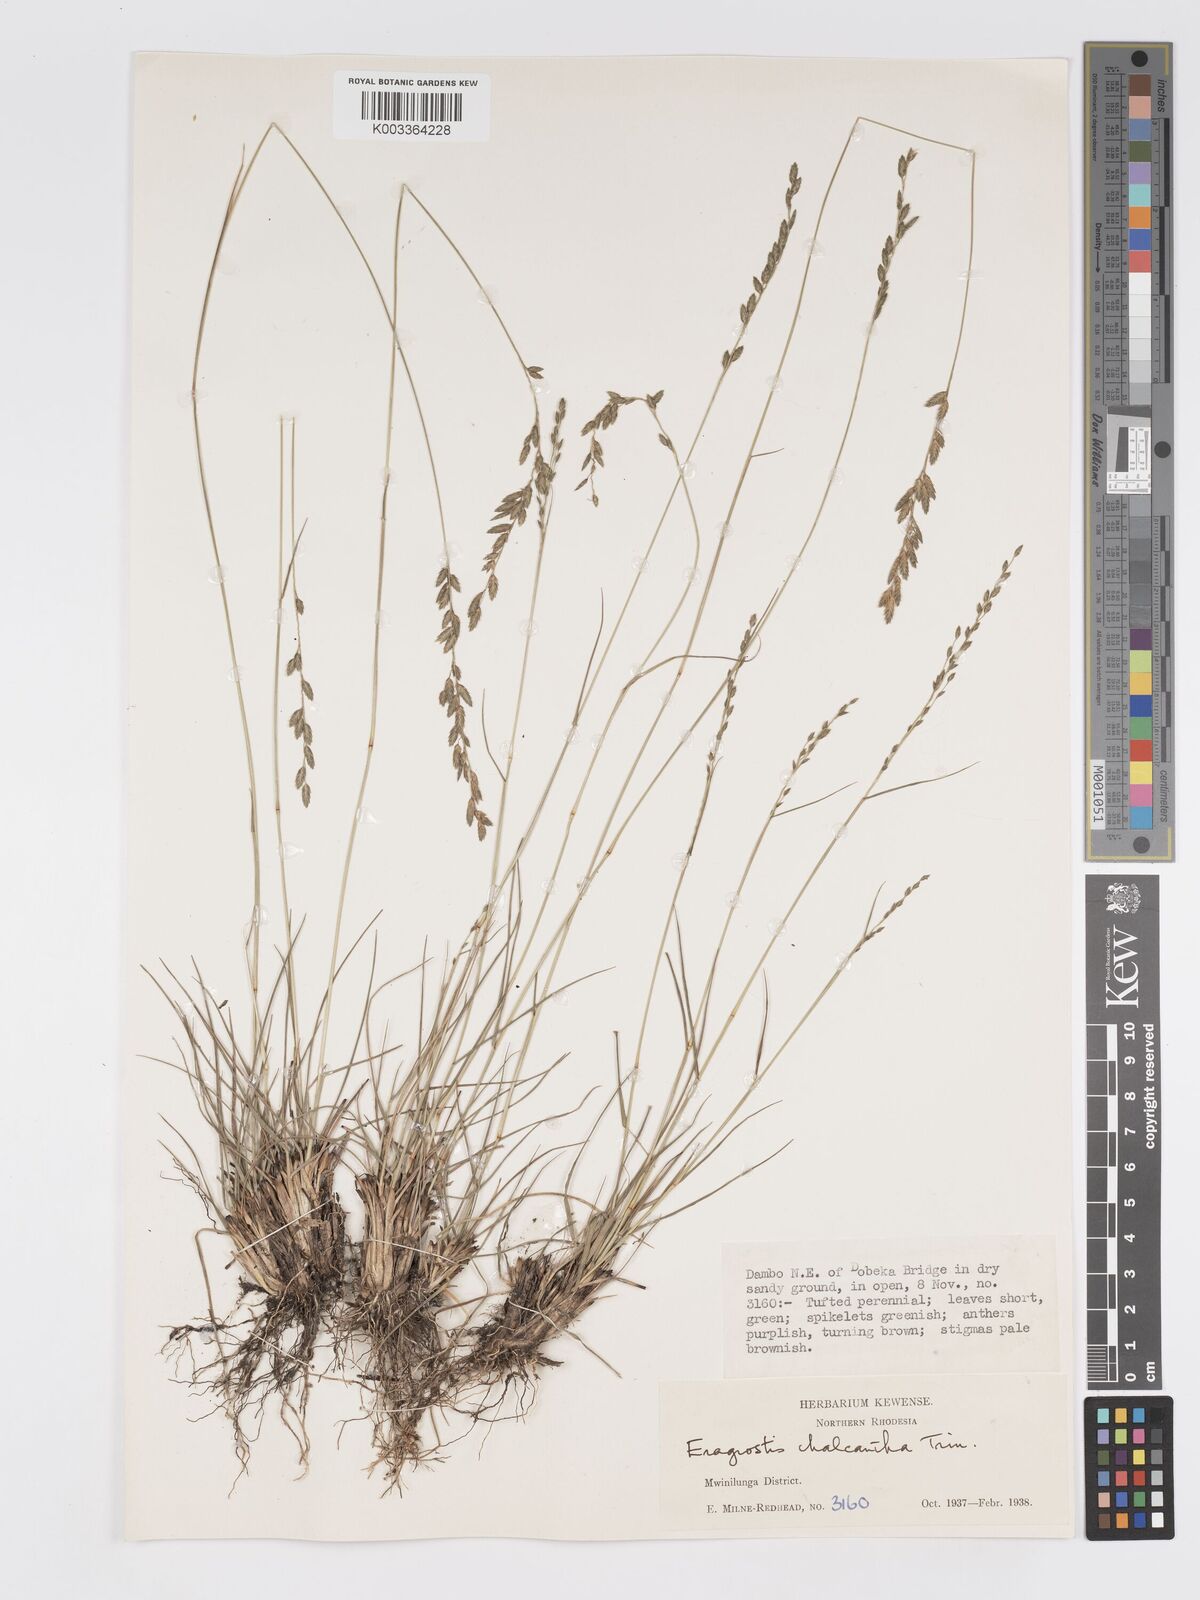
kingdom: Plantae
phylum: Tracheophyta
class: Liliopsida
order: Poales
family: Poaceae
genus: Eragrostis
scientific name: Eragrostis racemosa
